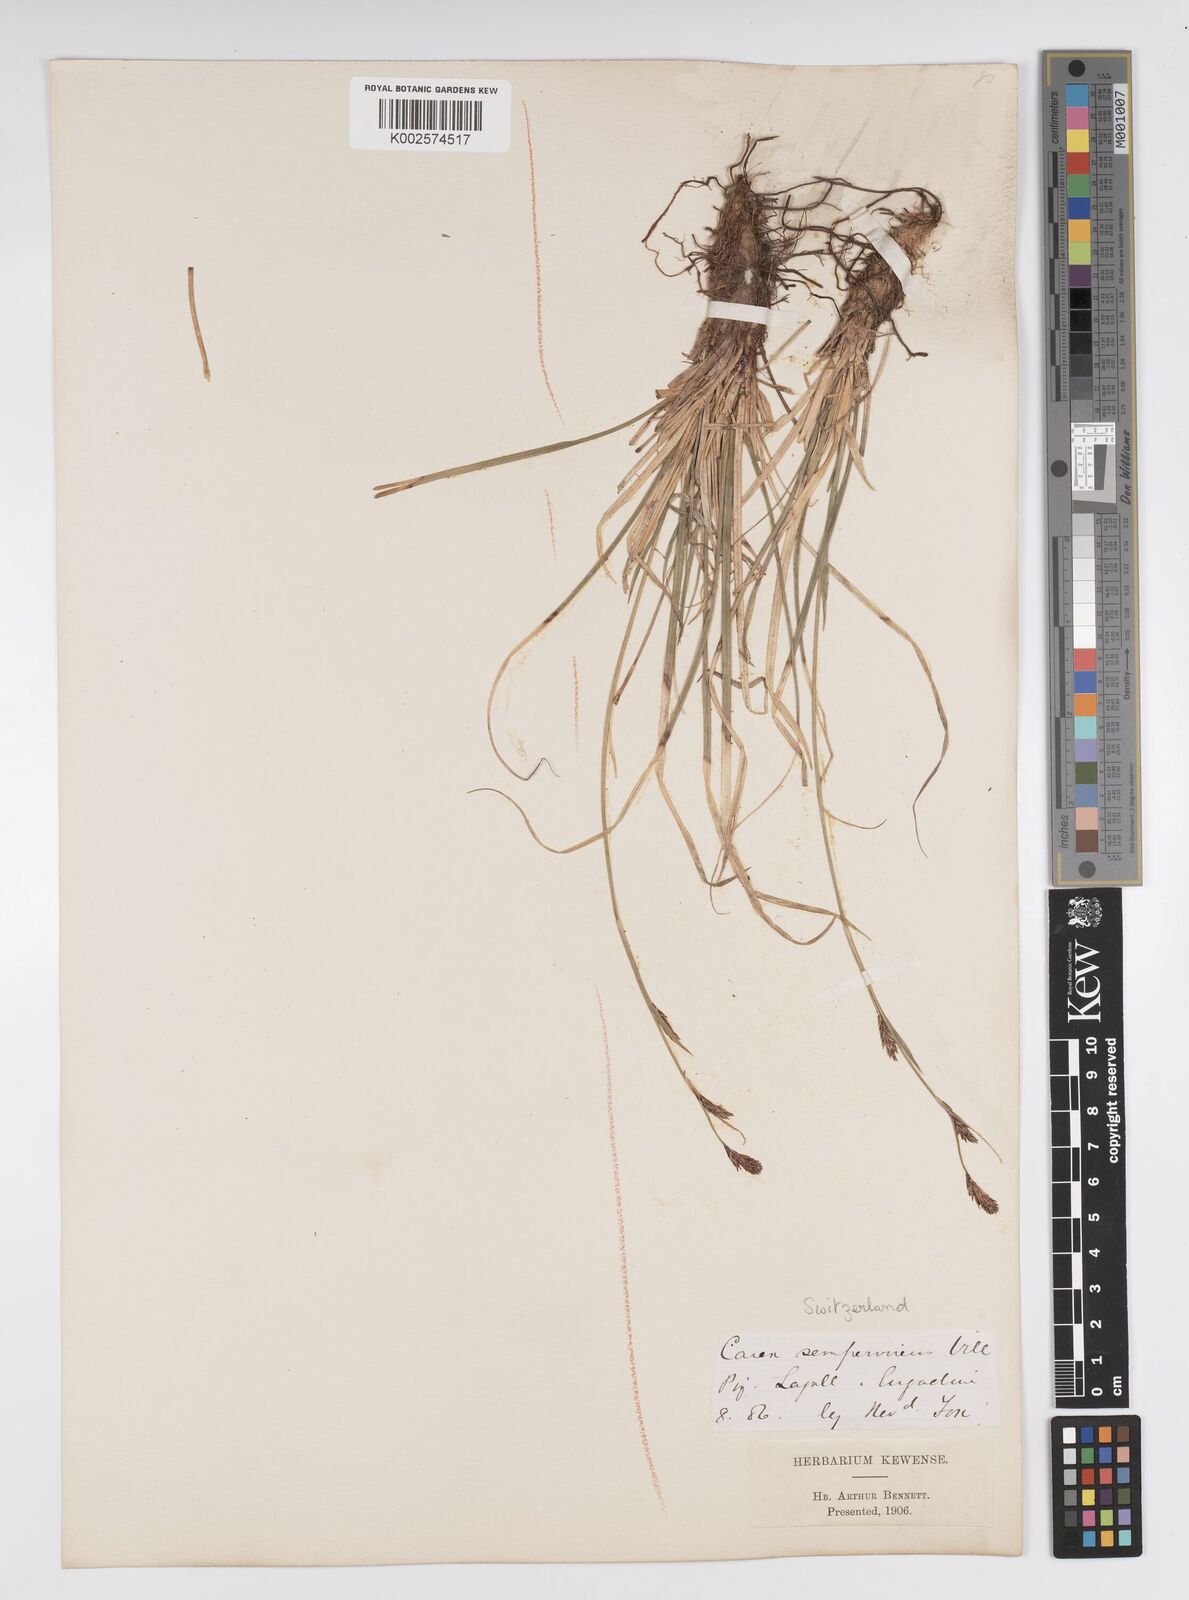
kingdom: Plantae
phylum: Tracheophyta
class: Liliopsida
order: Poales
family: Cyperaceae
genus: Carex
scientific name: Carex sempervirens
